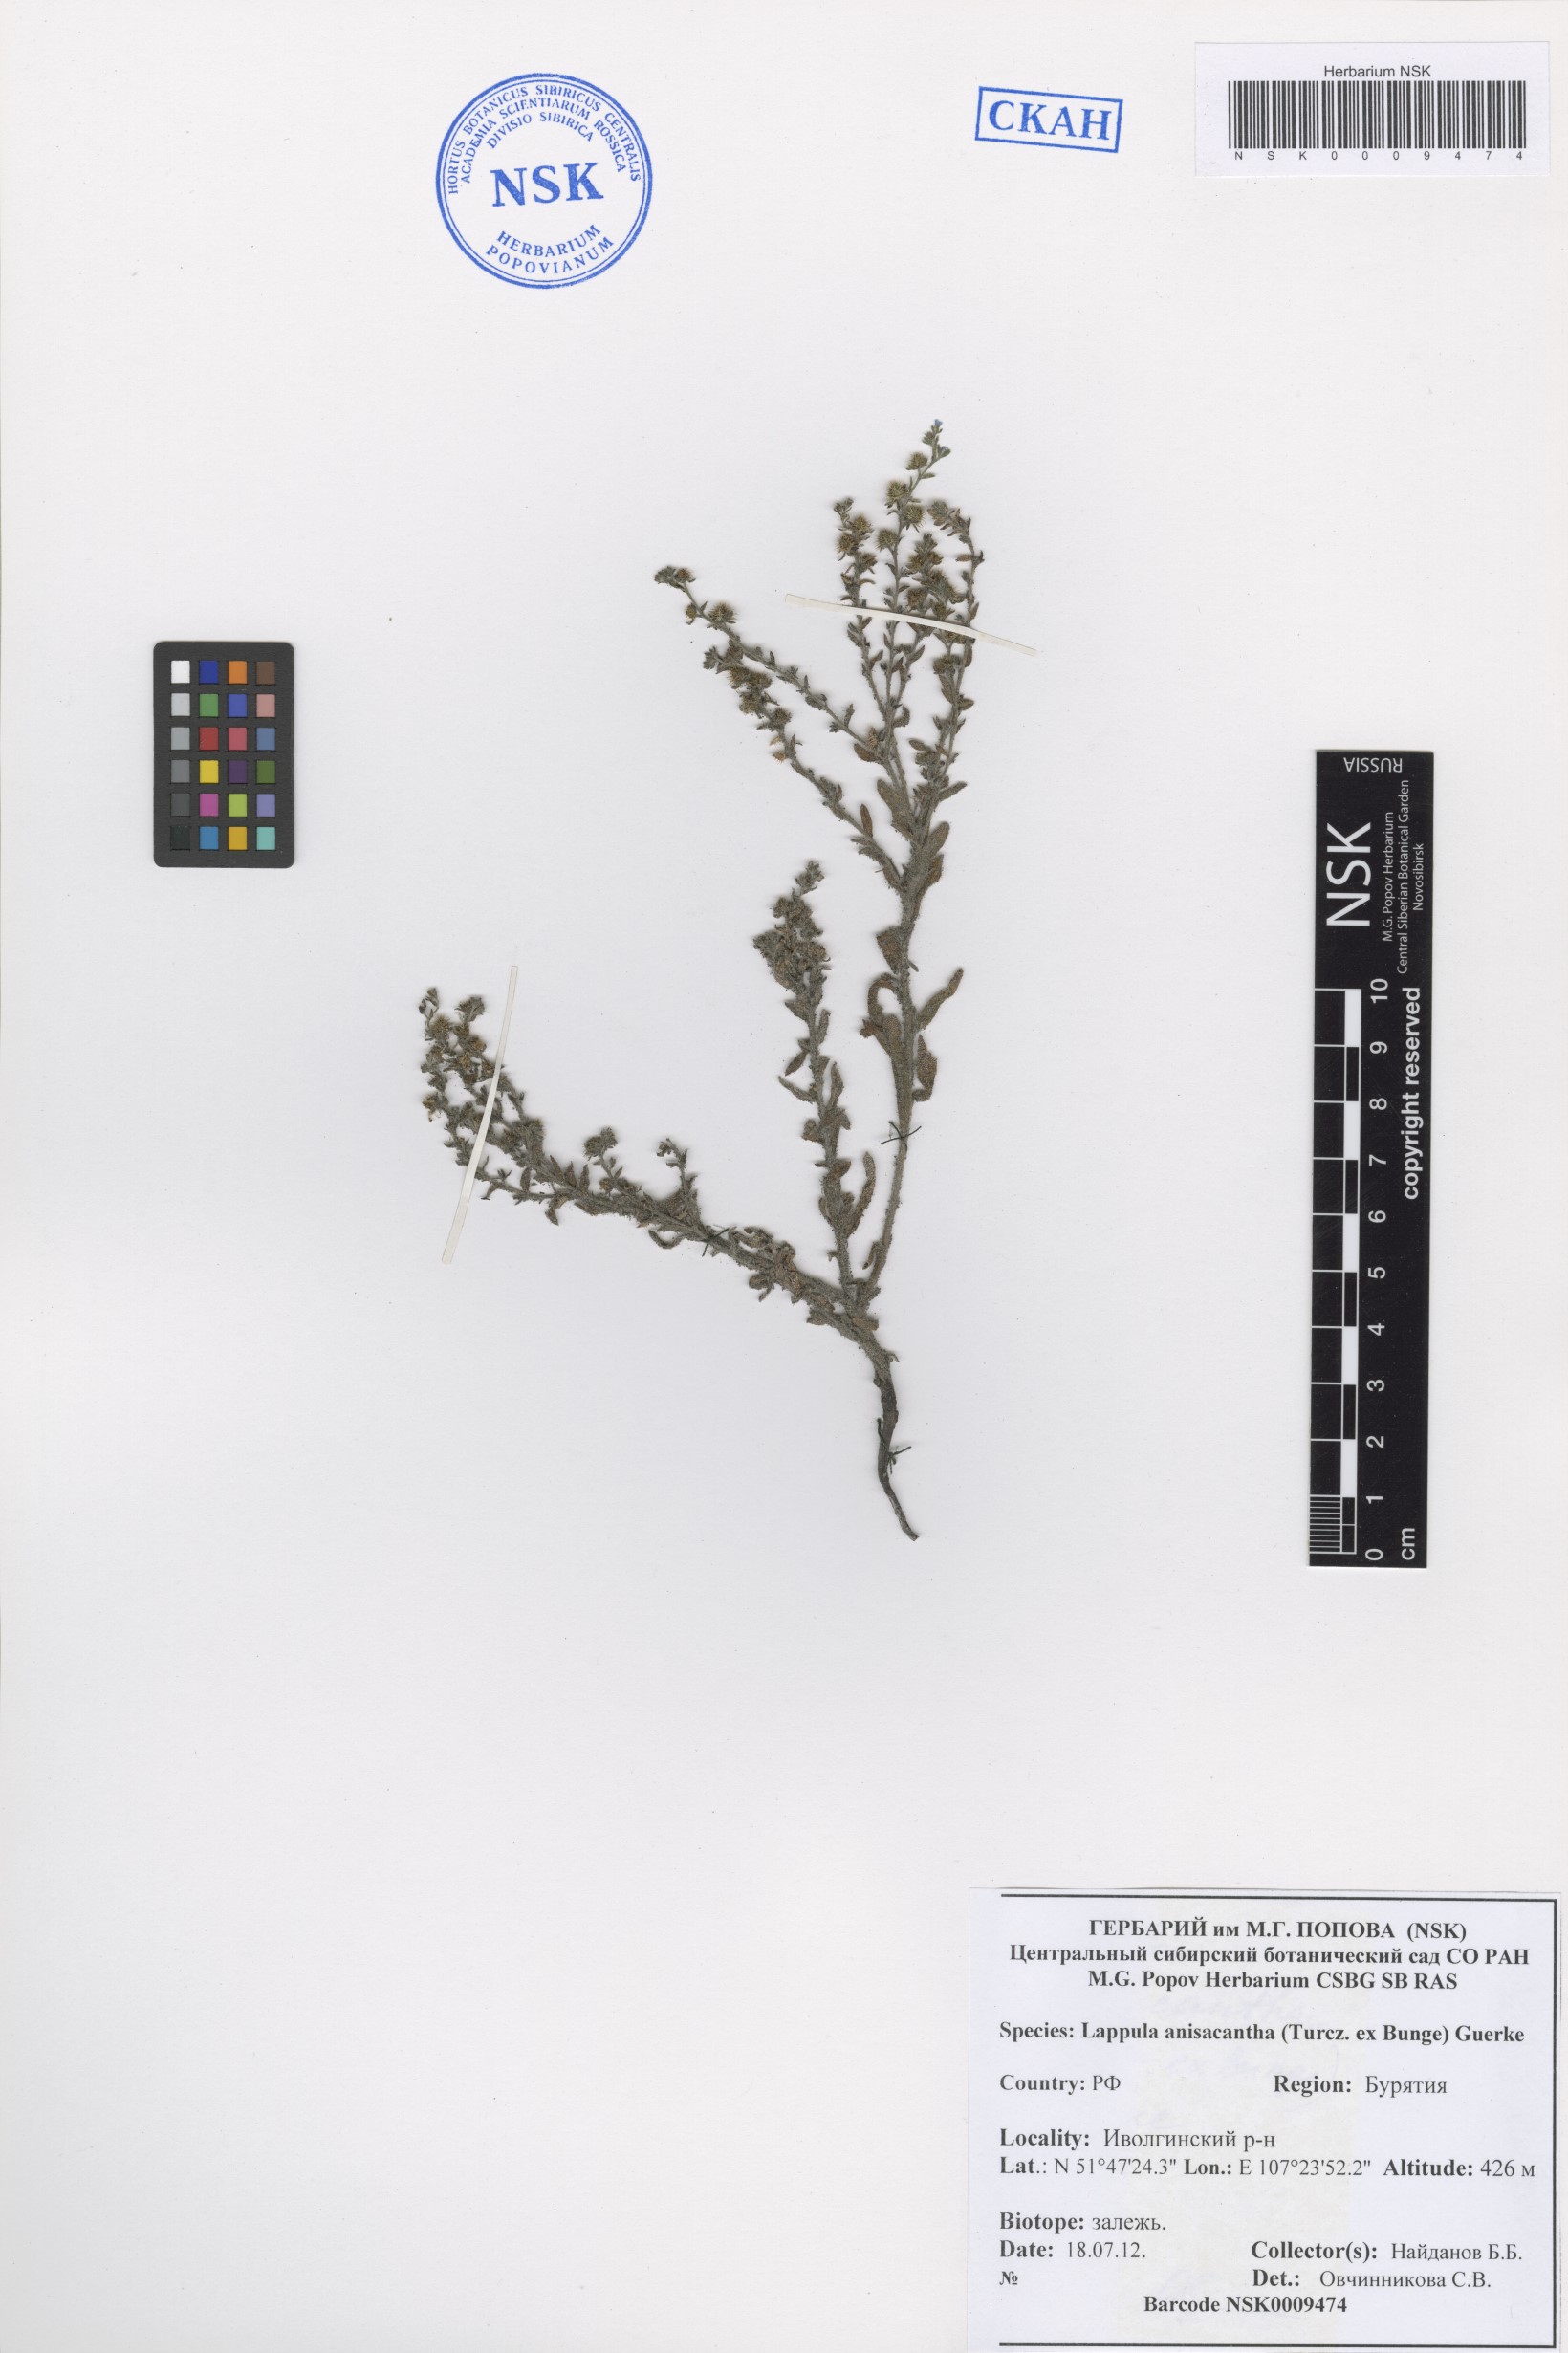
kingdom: Plantae
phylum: Tracheophyta
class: Magnoliopsida
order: Boraginales
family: Boraginaceae
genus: Lappula
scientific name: Lappula intermedia
